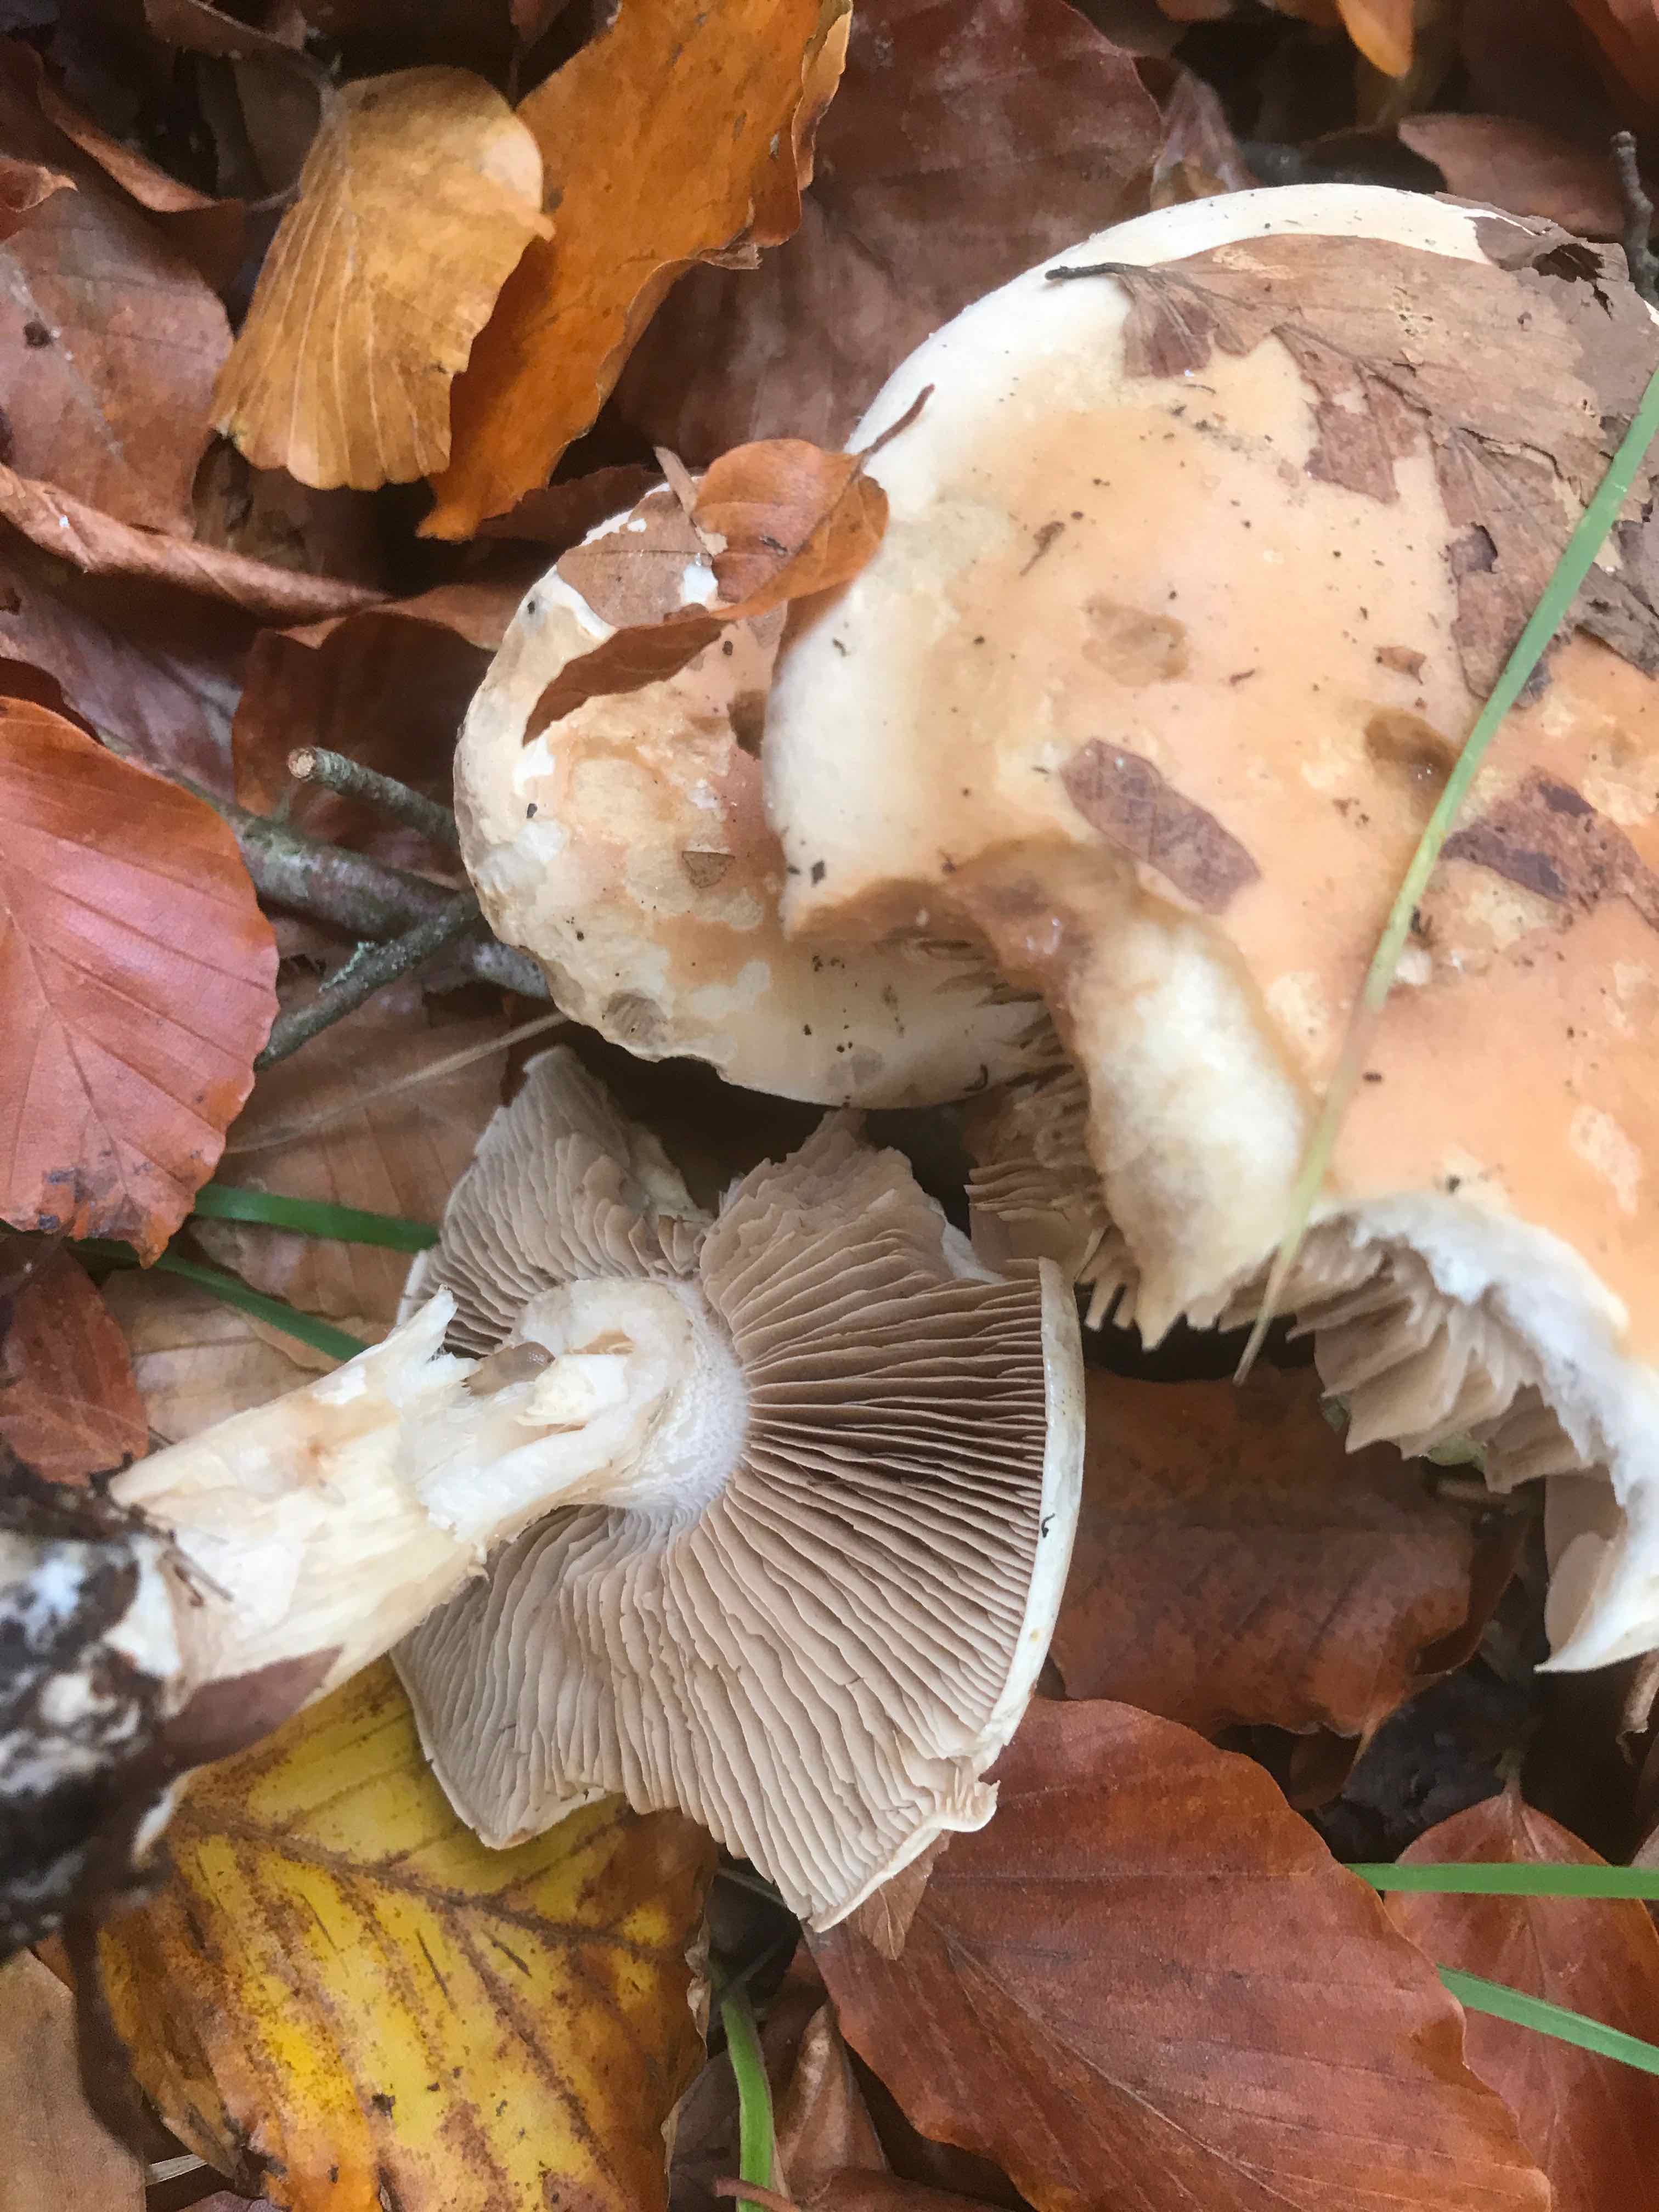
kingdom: Fungi
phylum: Basidiomycota
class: Agaricomycetes
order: Agaricales
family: Hymenogastraceae
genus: Hebeloma
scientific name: Hebeloma sinapizans
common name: ræddike-tåreblad
